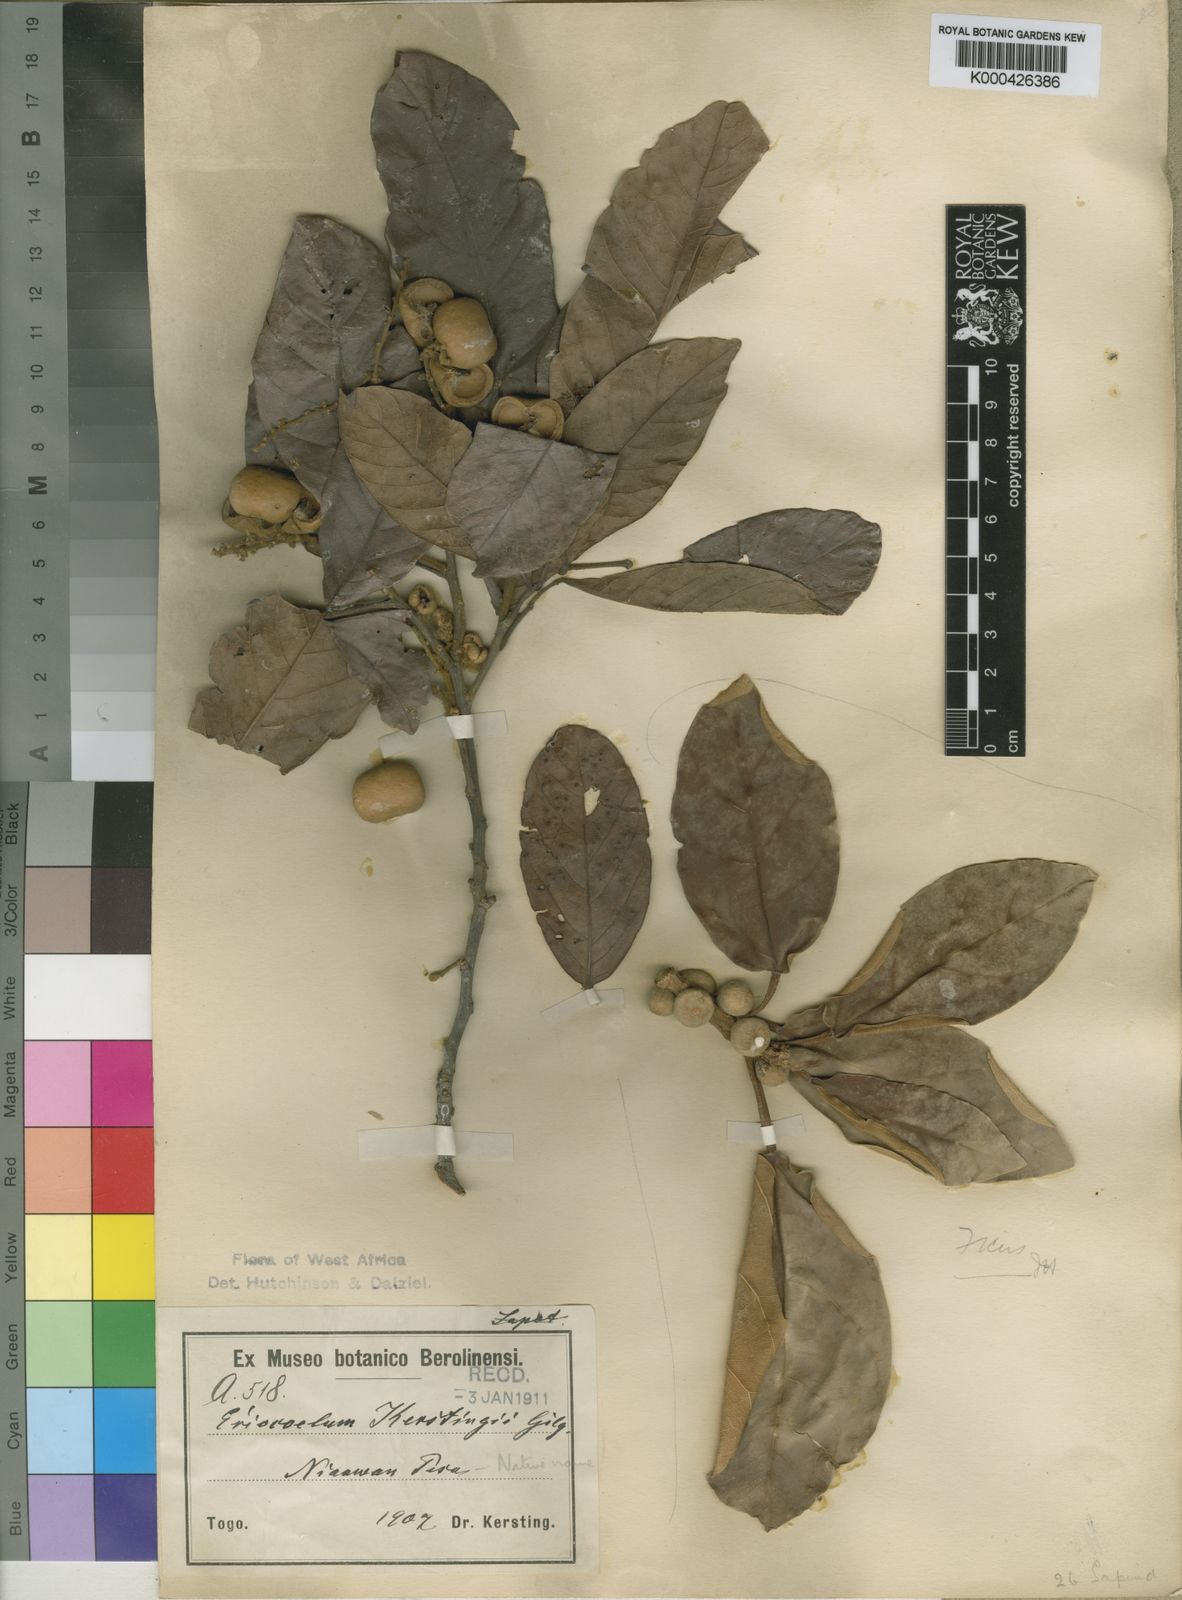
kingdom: Plantae
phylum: Tracheophyta
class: Magnoliopsida
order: Sapindales
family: Sapindaceae
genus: Eriocoelum
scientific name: Eriocoelum kerstingii
